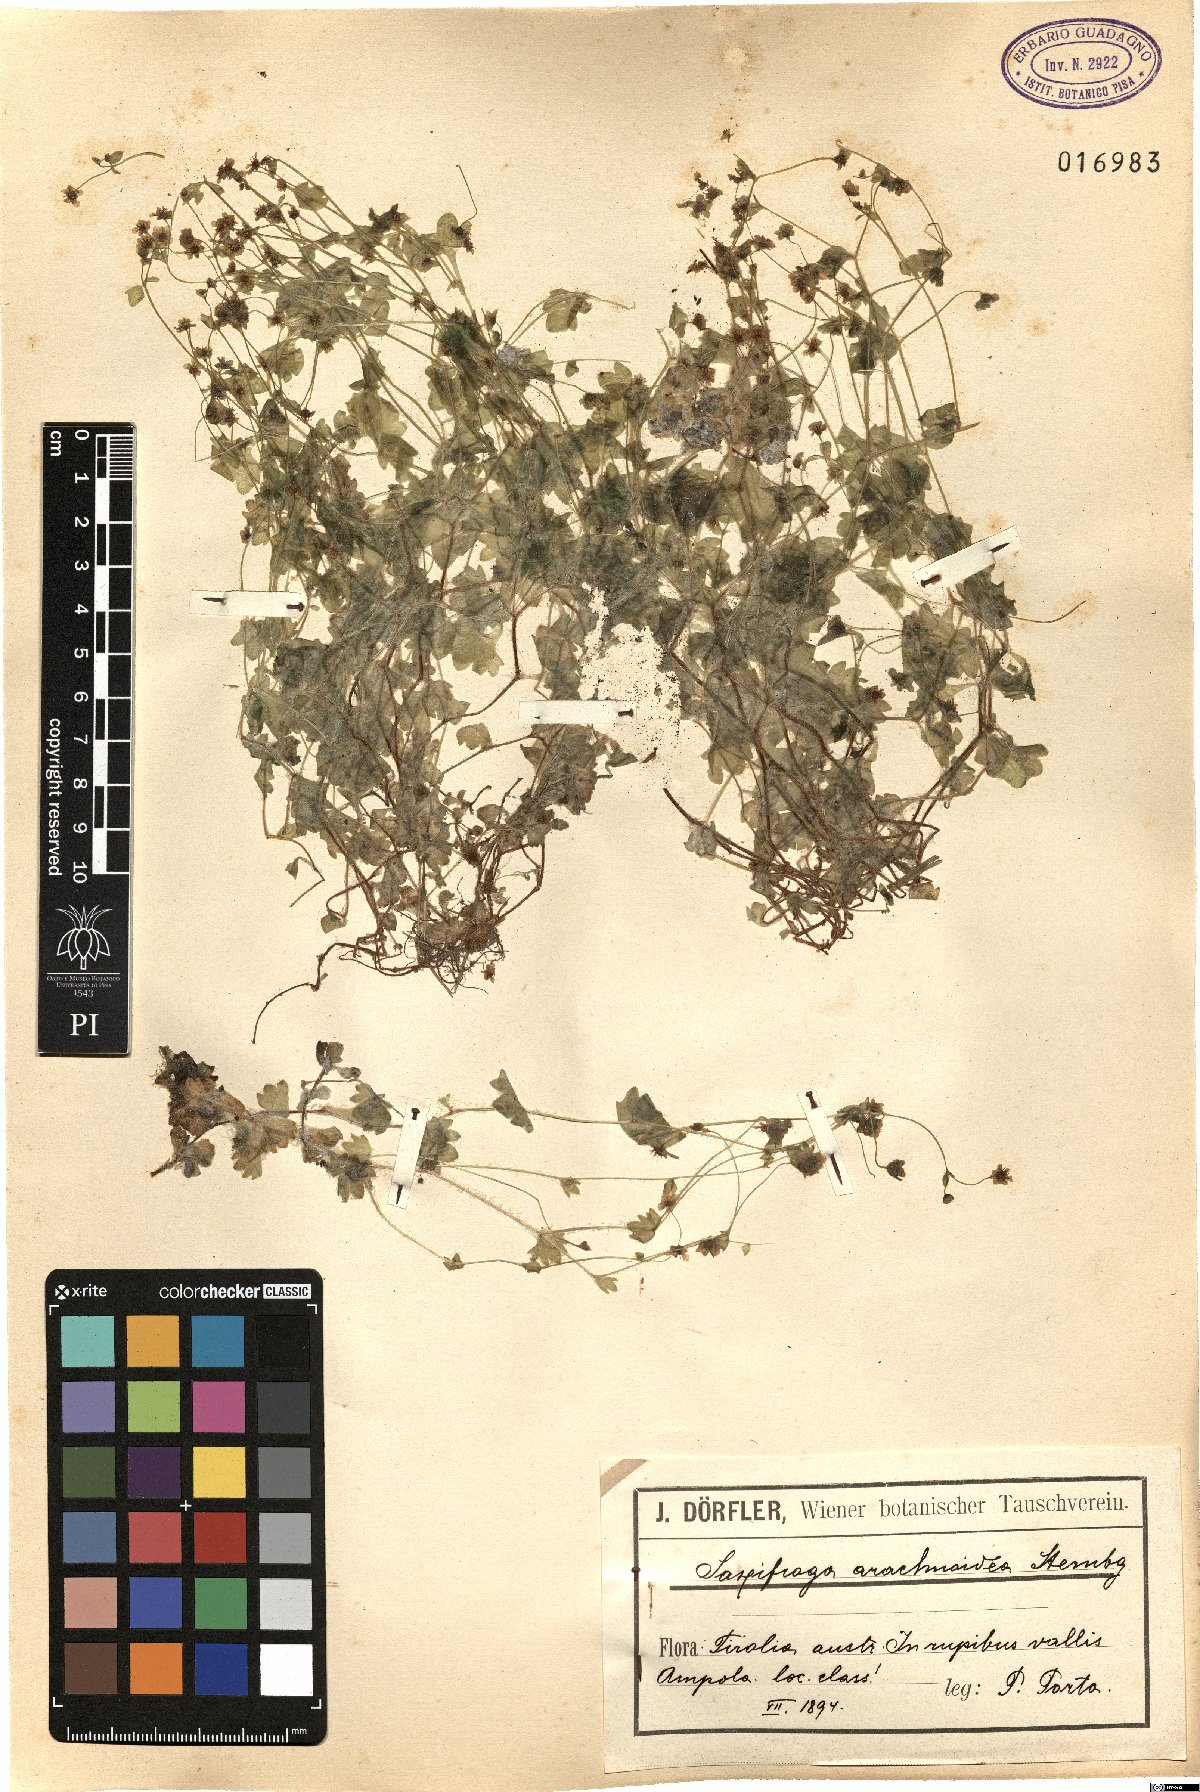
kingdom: Plantae
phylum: Tracheophyta
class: Magnoliopsida
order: Saxifragales
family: Saxifragaceae
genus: Saxifraga
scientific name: Saxifraga arachnoidea
